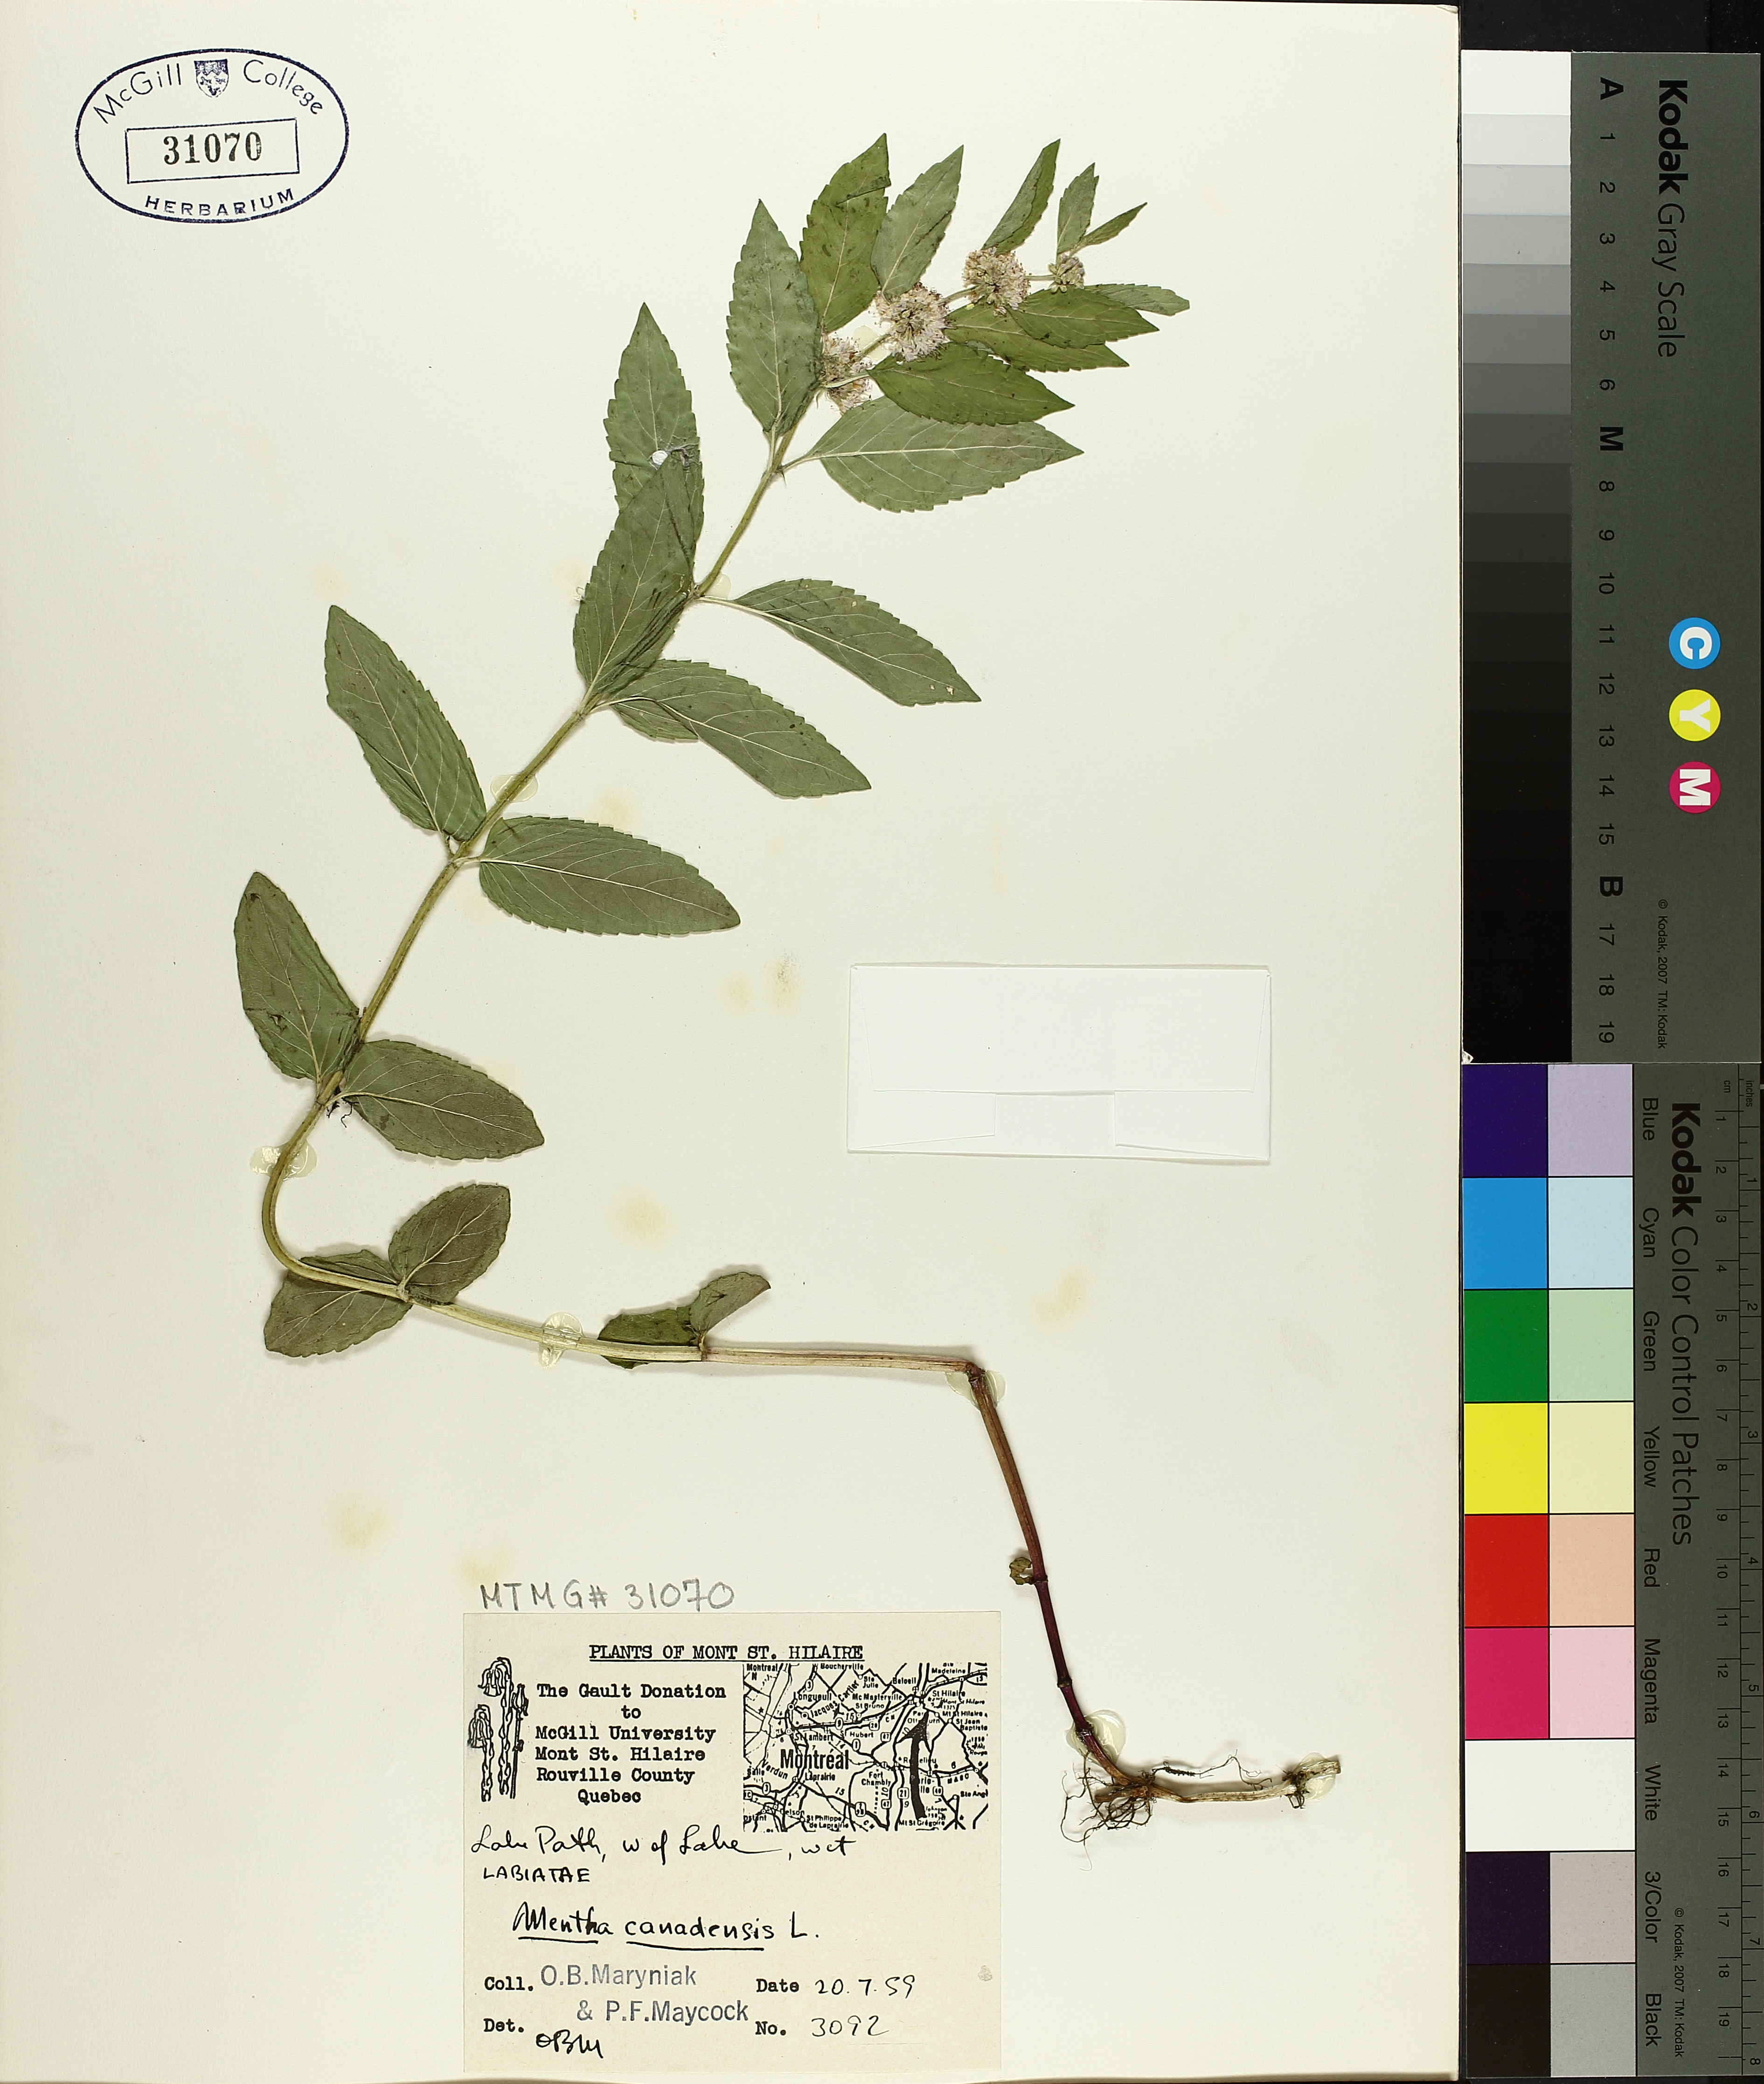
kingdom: Plantae
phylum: Tracheophyta
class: Magnoliopsida
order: Lamiales
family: Lamiaceae
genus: Mentha
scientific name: Mentha canadensis
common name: American corn mint
